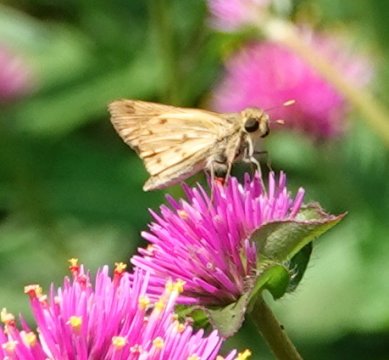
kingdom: Animalia
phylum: Arthropoda
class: Insecta
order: Lepidoptera
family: Hesperiidae
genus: Hylephila
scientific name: Hylephila phyleus
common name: Fiery Skipper
